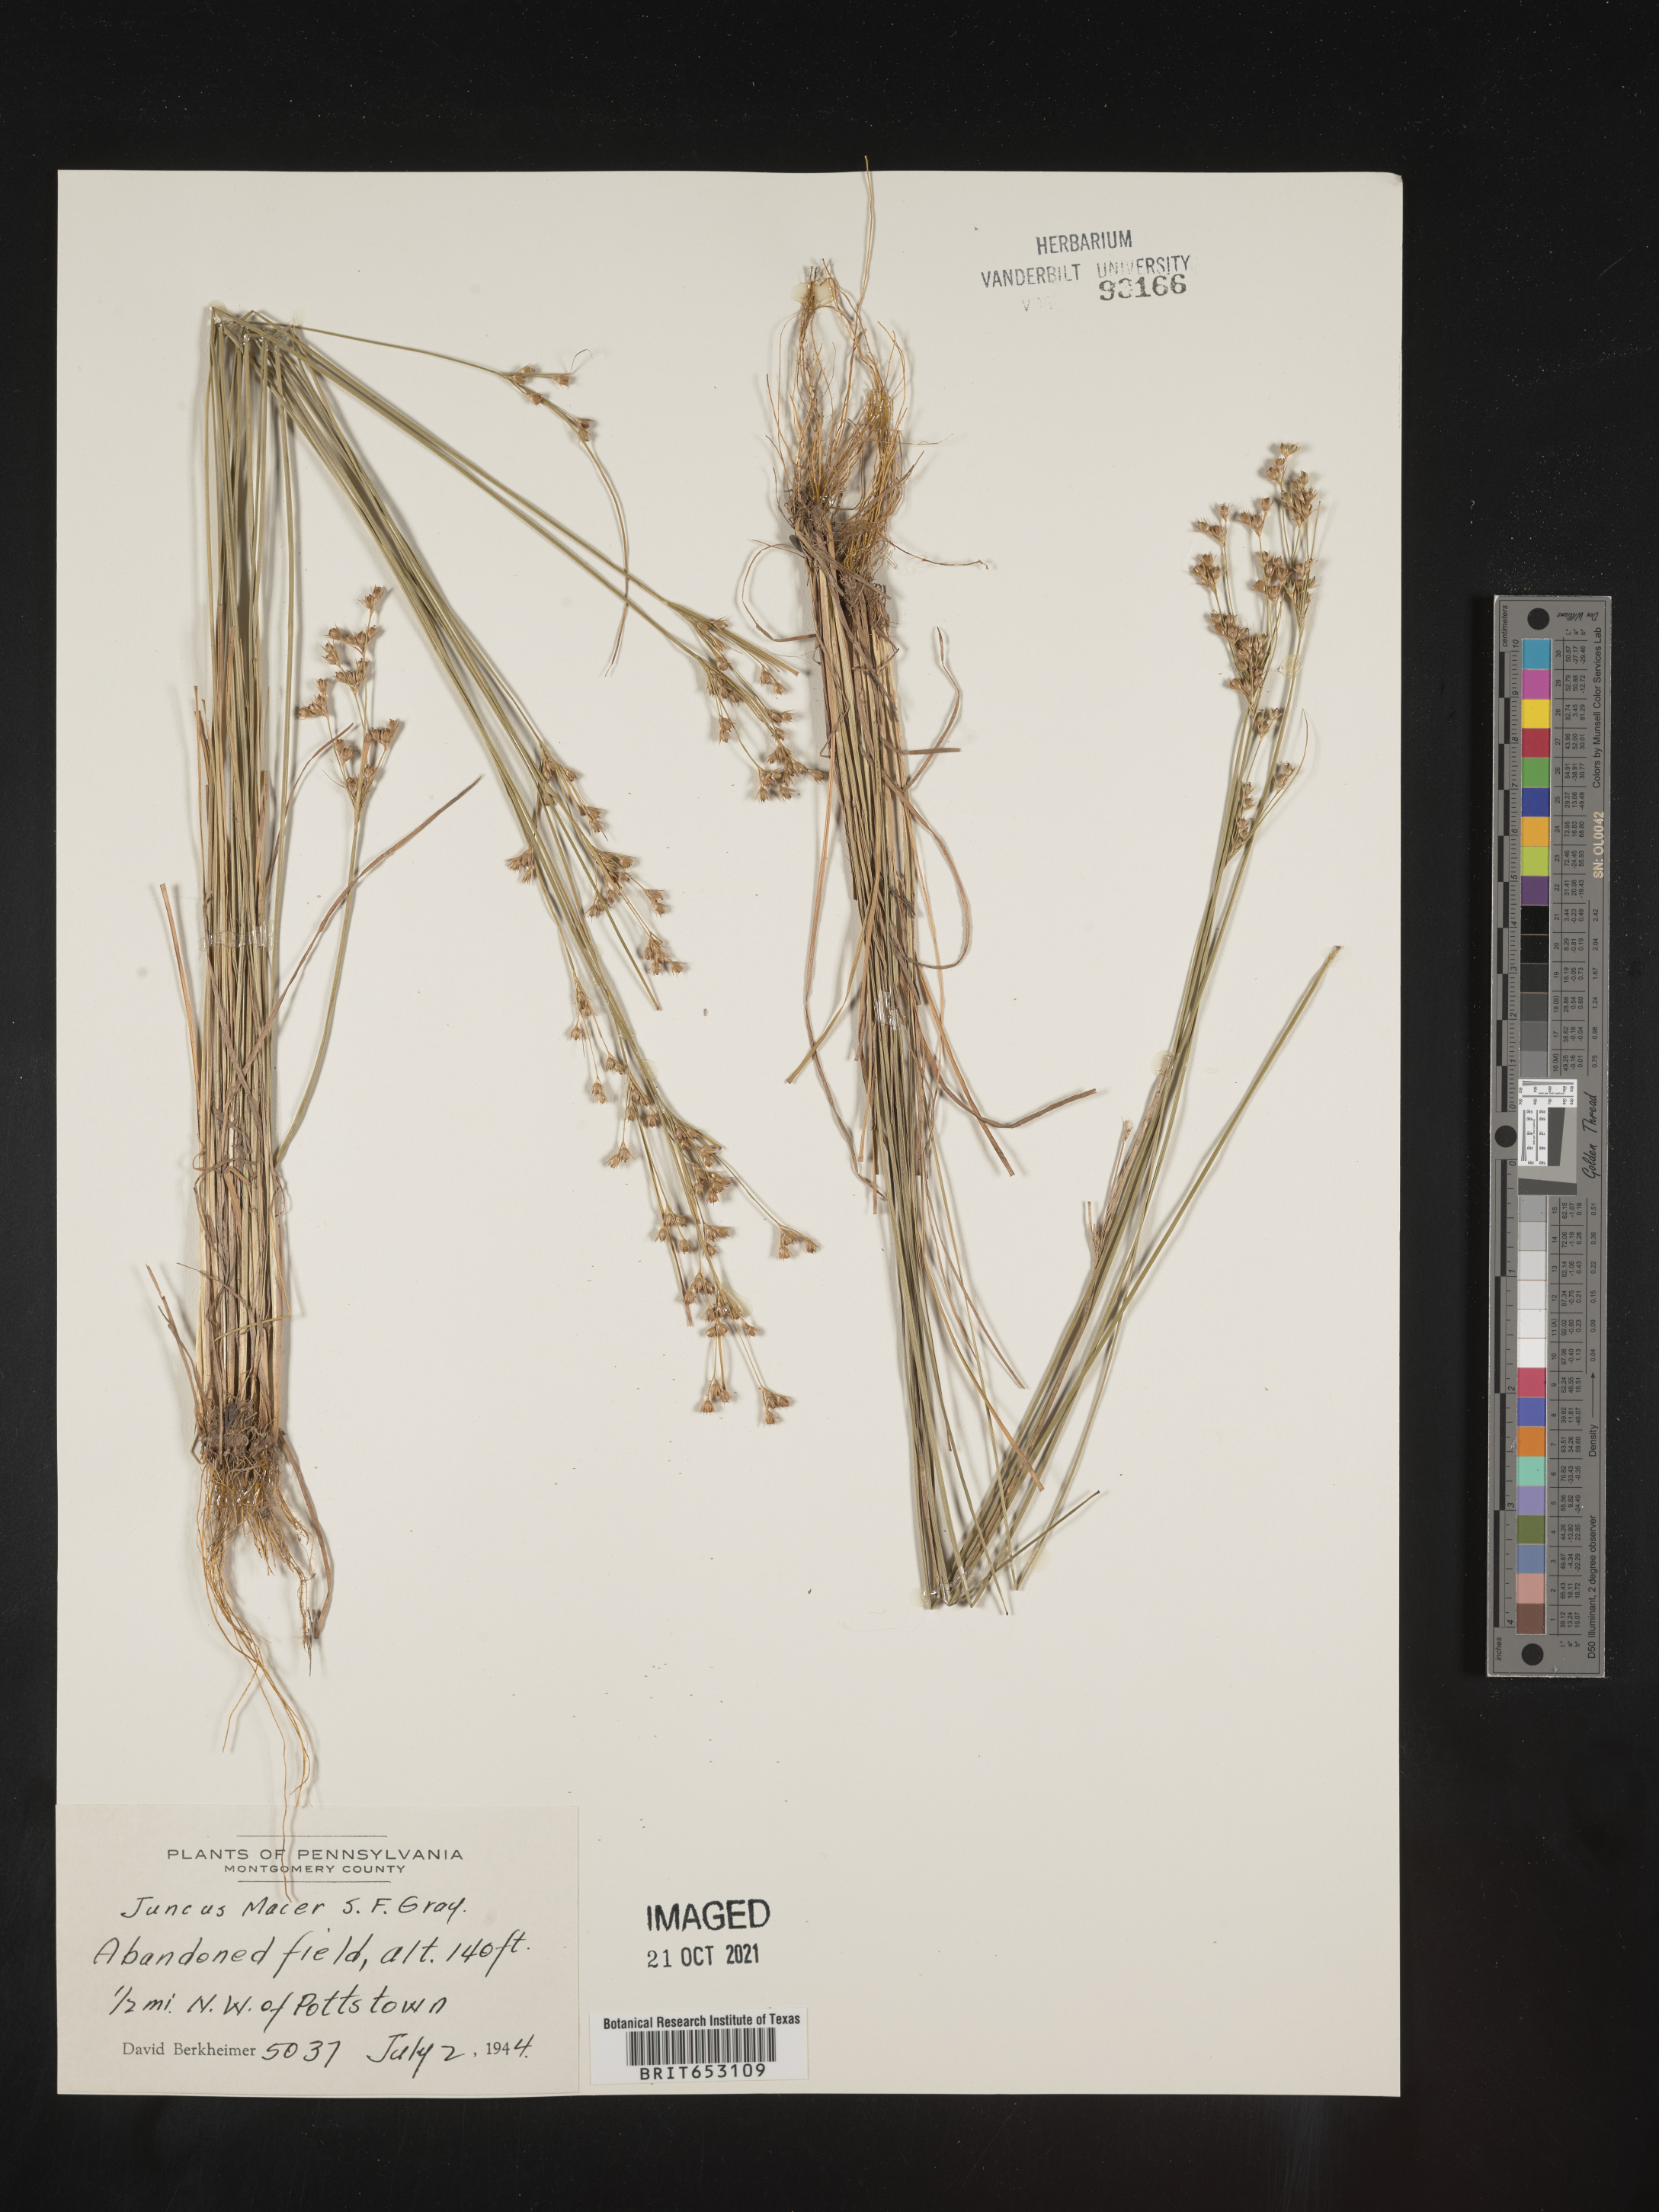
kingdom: Plantae
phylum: Tracheophyta
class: Liliopsida
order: Poales
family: Juncaceae
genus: Juncus
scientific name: Juncus tenuis
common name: Slender rush
